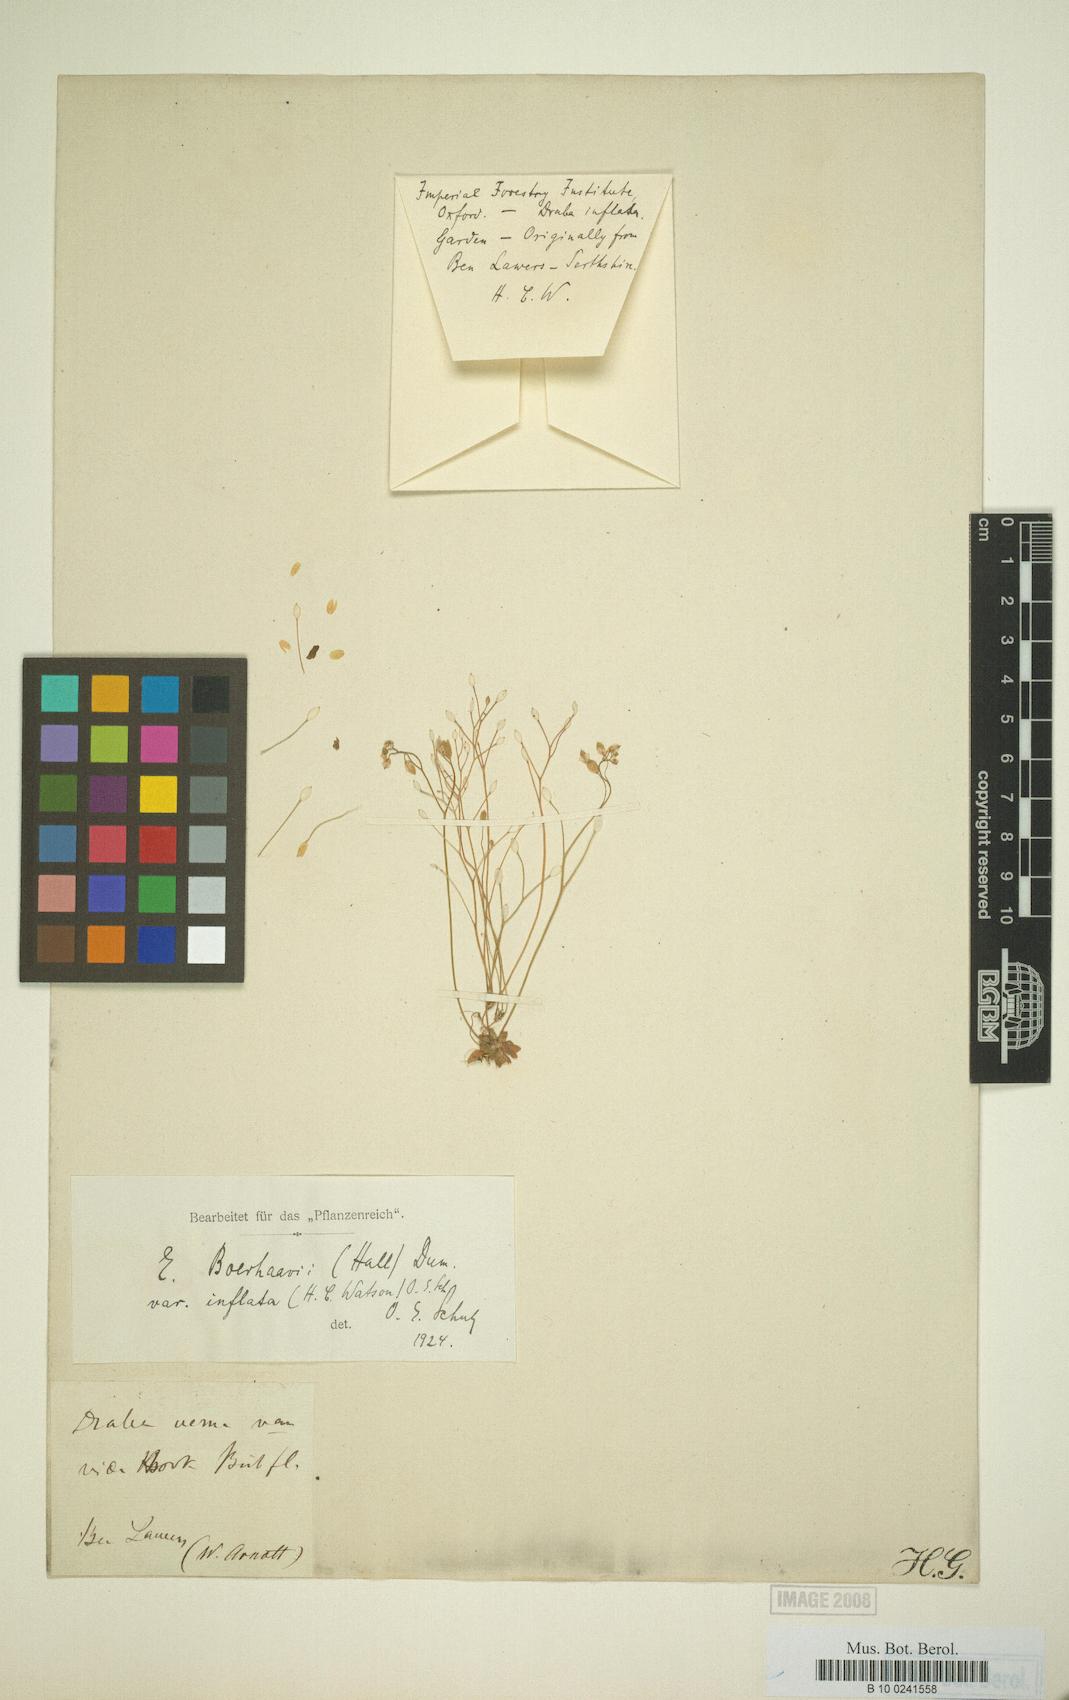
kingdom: Plantae
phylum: Tracheophyta
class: Magnoliopsida
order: Brassicales
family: Brassicaceae
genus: Draba
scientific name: Draba verna
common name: Spring draba
